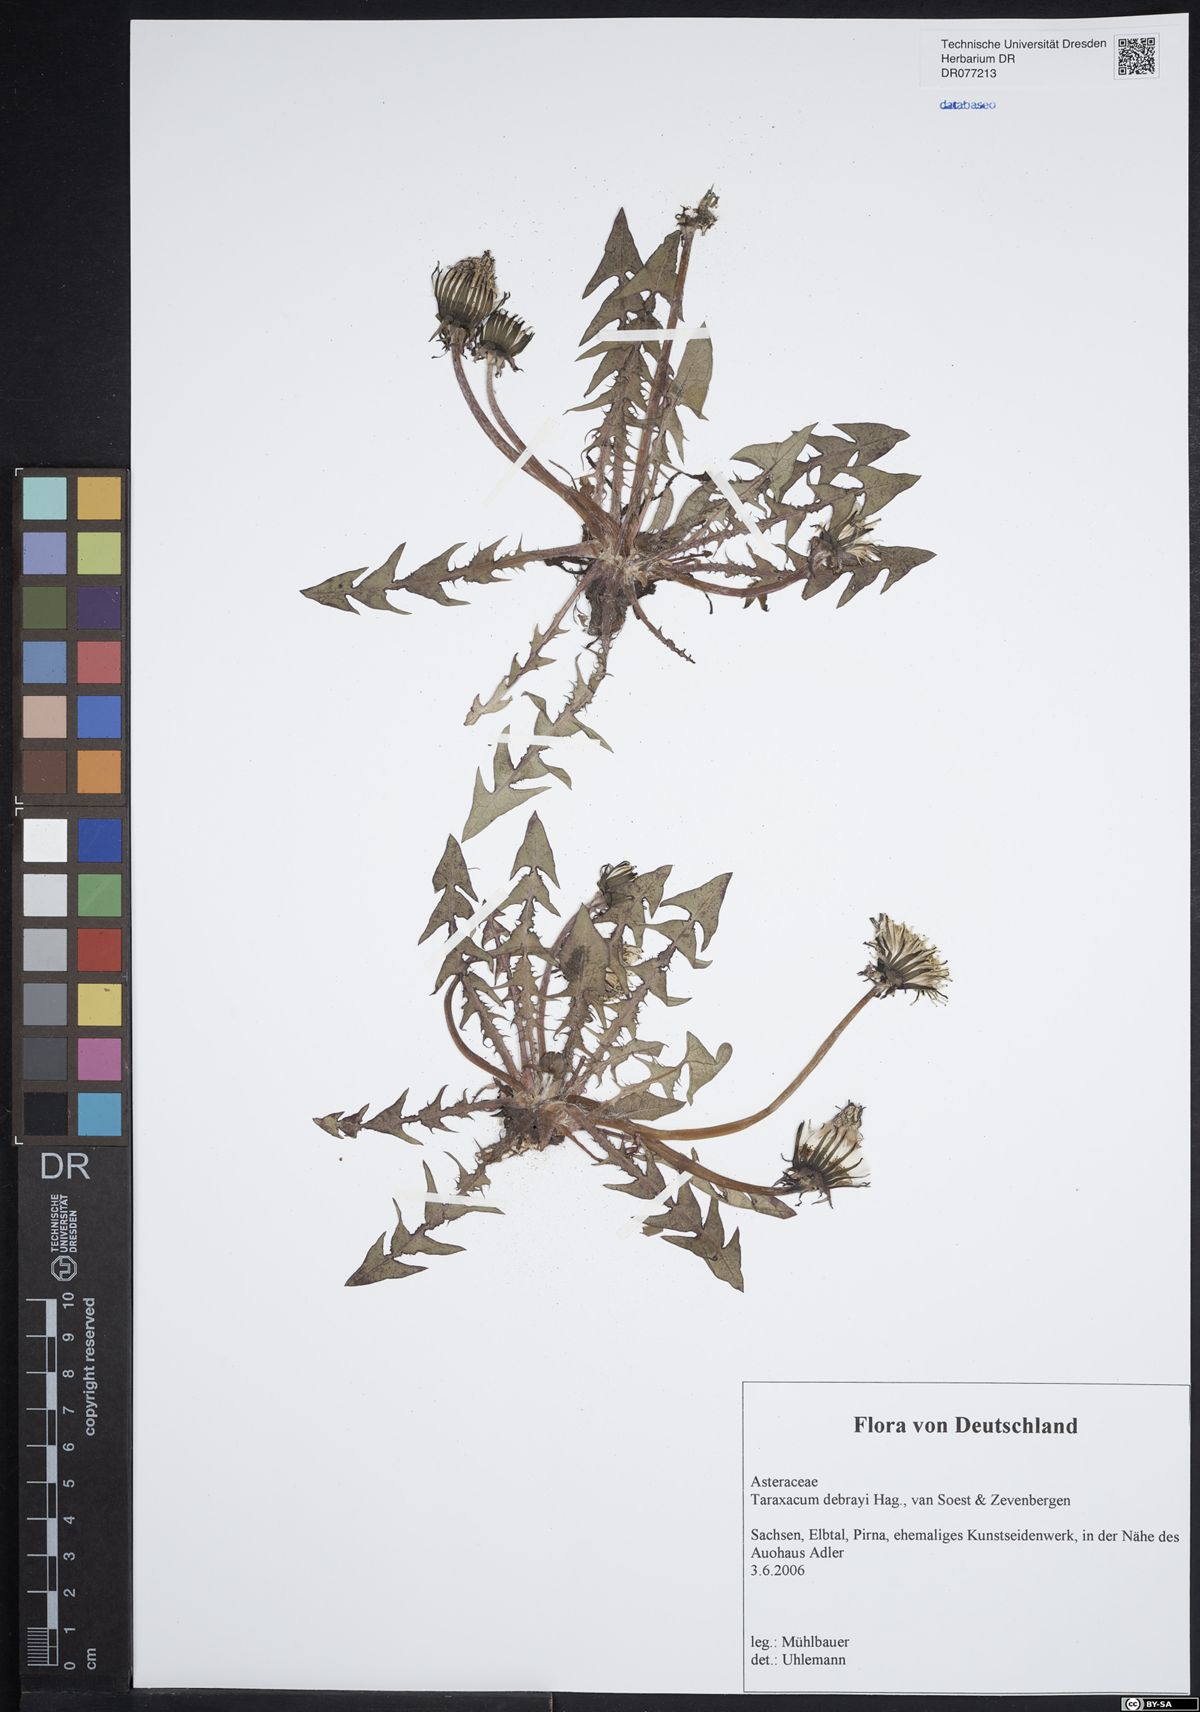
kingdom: Plantae
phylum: Tracheophyta
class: Magnoliopsida
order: Asterales
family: Asteraceae
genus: Taraxacum
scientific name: Taraxacum debrayi
